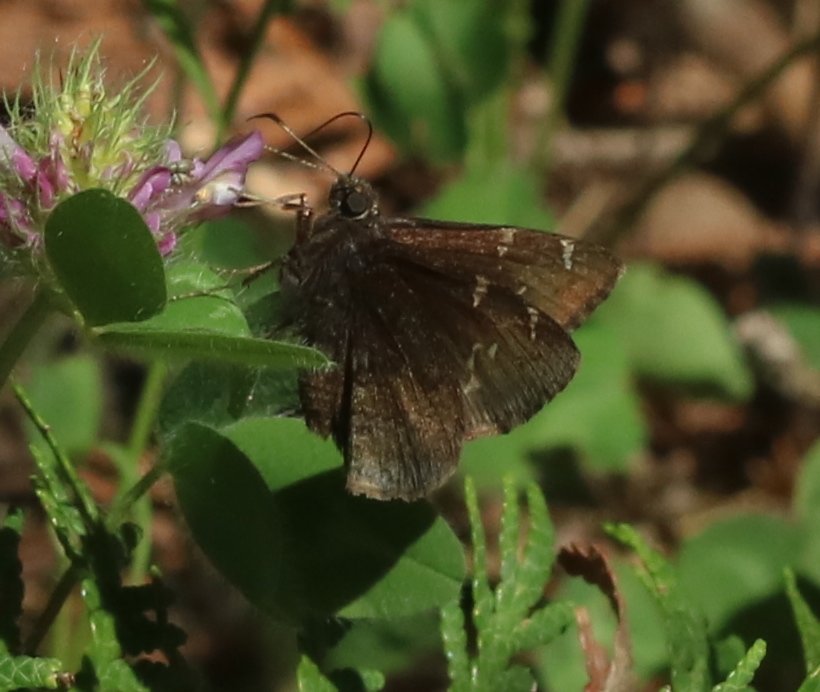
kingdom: Animalia
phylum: Arthropoda
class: Insecta
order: Lepidoptera
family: Hesperiidae
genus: Autochton
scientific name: Autochton
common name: Northern Cloudywing
